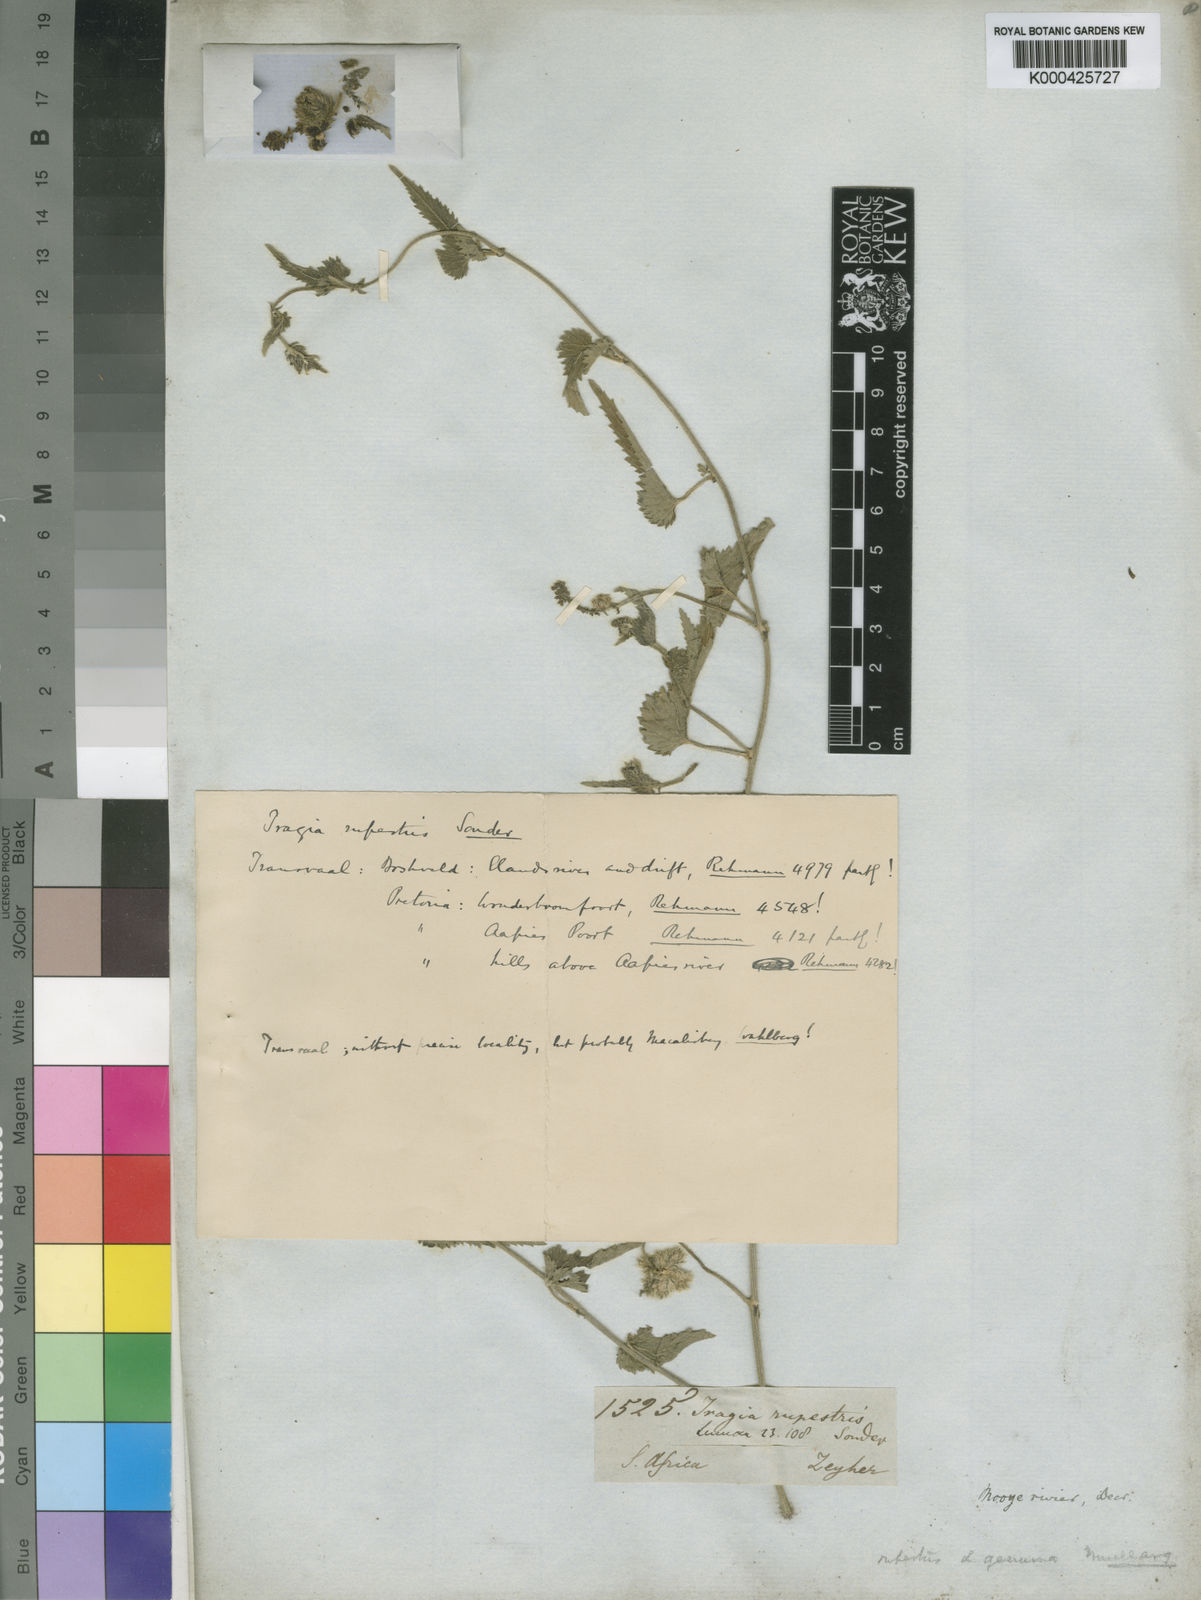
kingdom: Plantae
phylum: Tracheophyta
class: Magnoliopsida
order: Malpighiales
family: Euphorbiaceae
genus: Tragia
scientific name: Tragia rupestris
